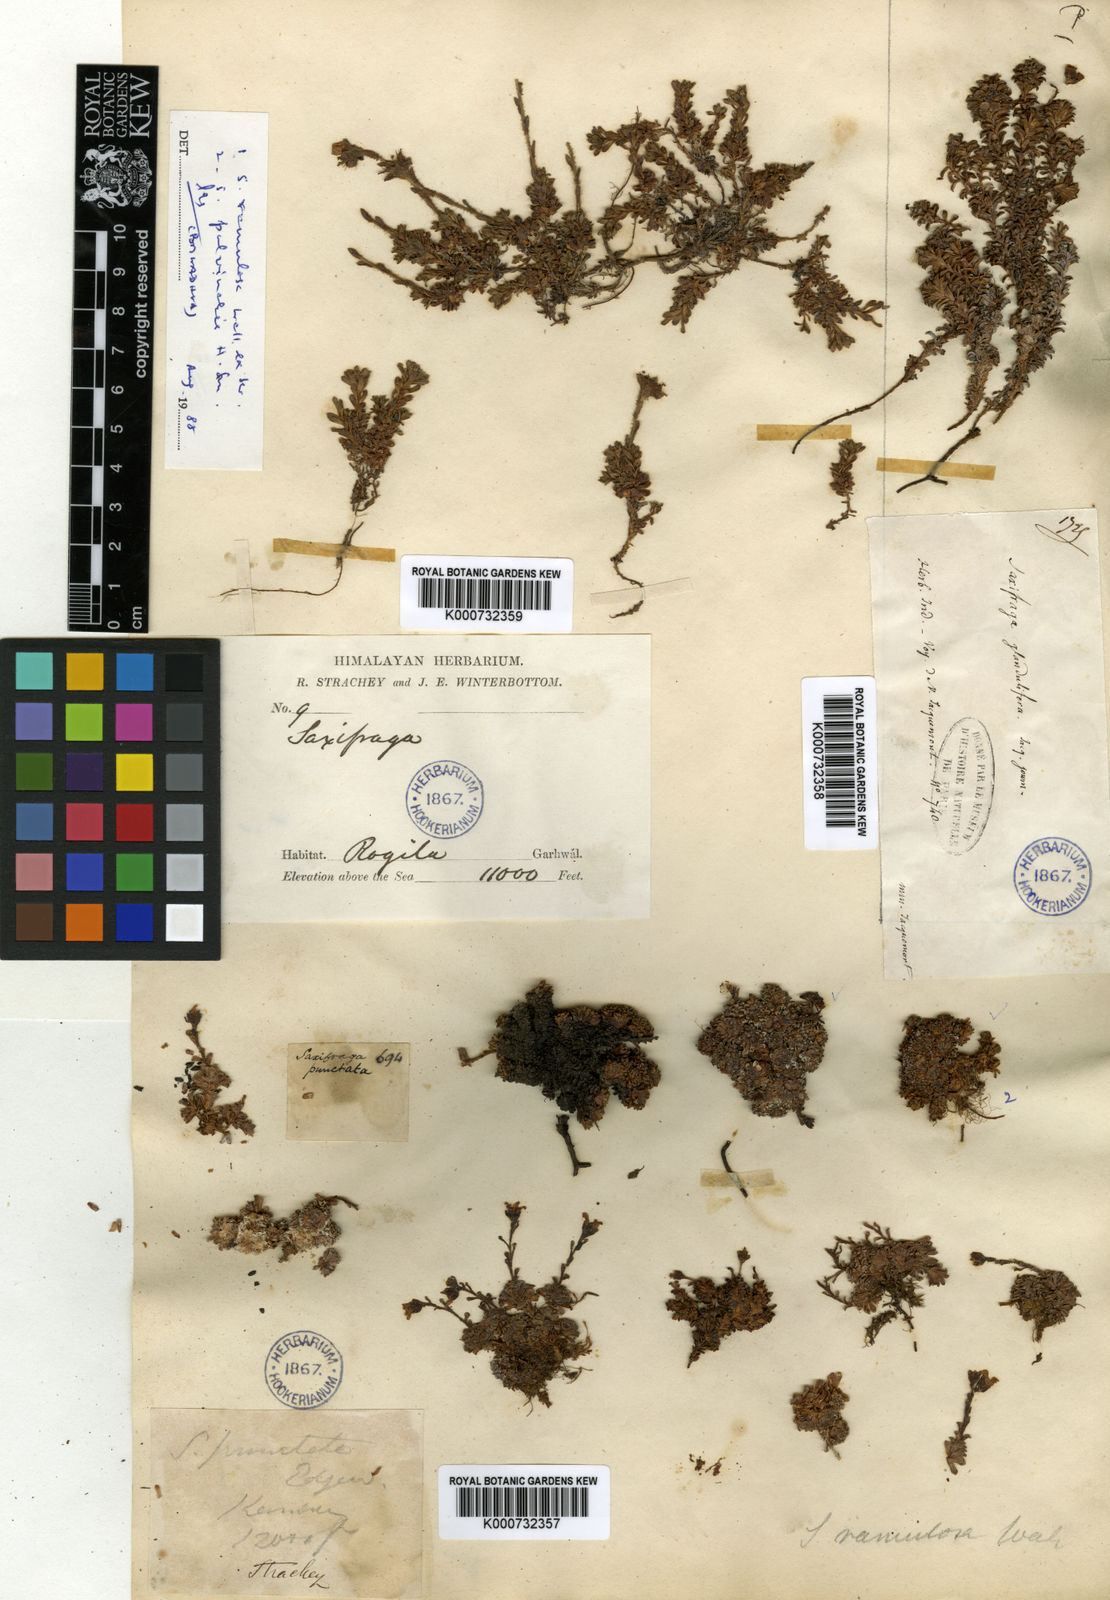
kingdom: Plantae
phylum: Tracheophyta
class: Magnoliopsida
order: Saxifragales
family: Saxifragaceae
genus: Saxifraga
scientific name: Saxifraga
